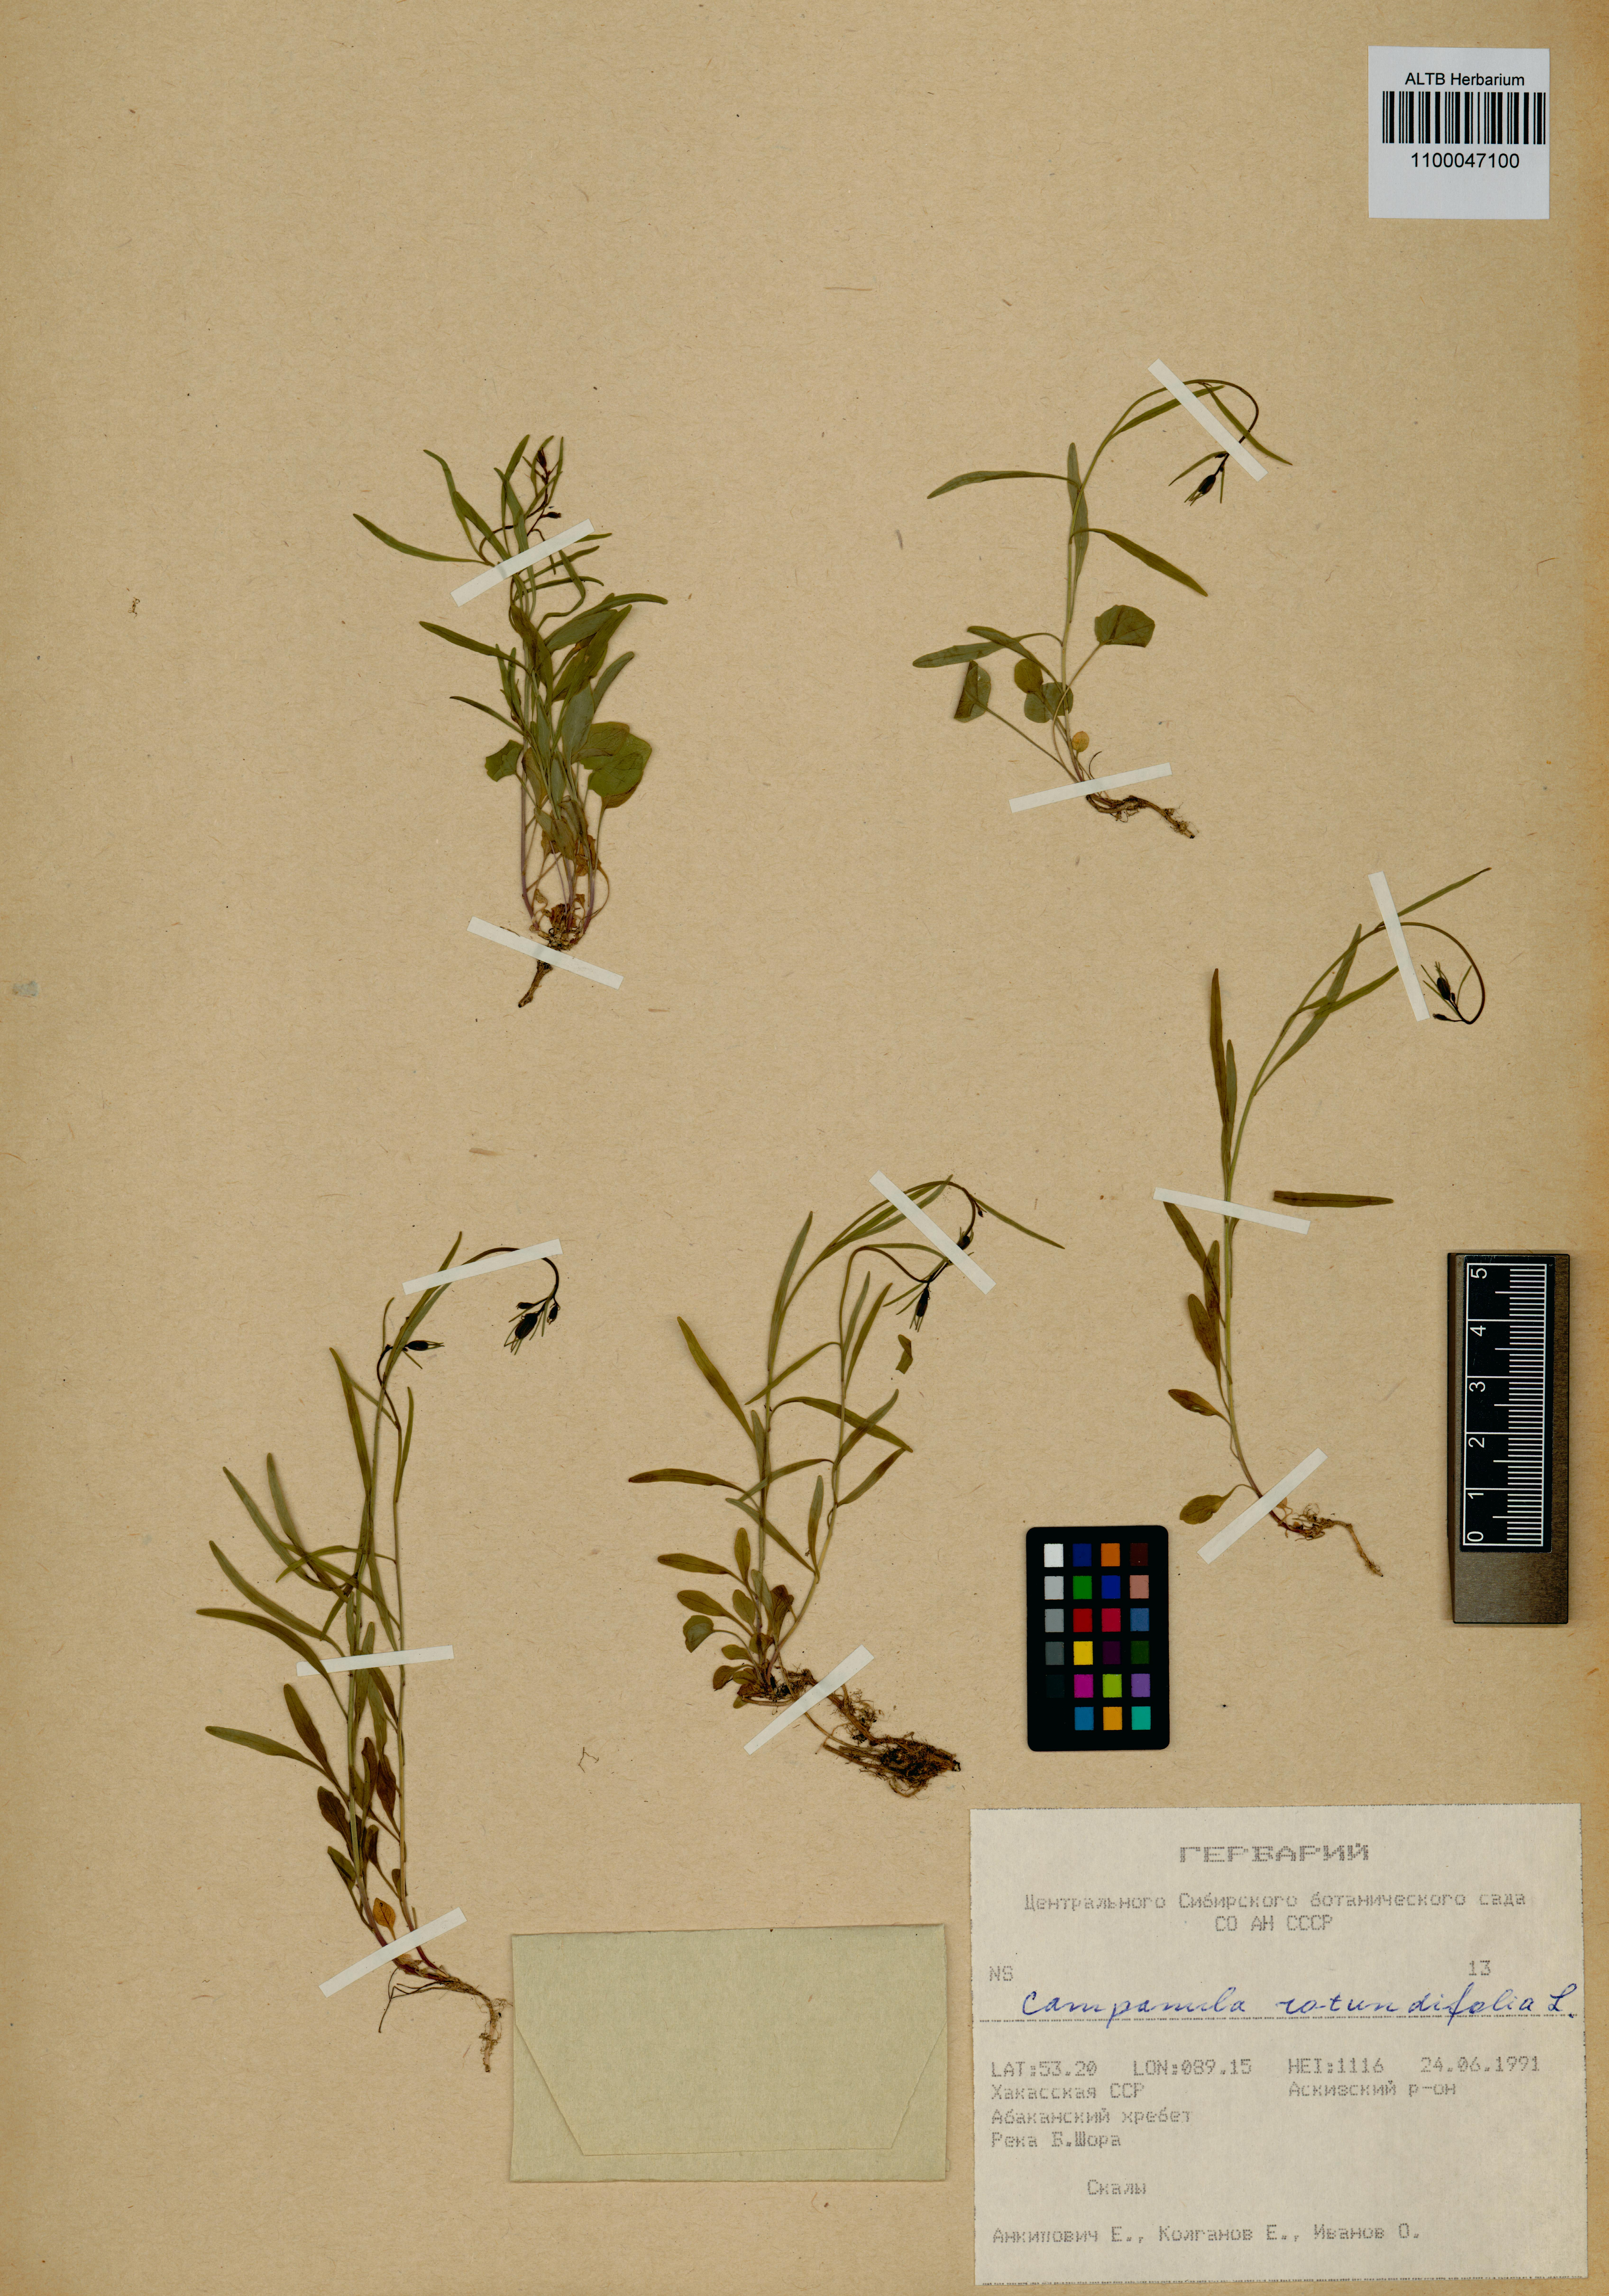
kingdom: Plantae
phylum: Tracheophyta
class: Magnoliopsida
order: Asterales
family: Campanulaceae
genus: Campanula
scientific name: Campanula rotundifolia
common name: Harebell
